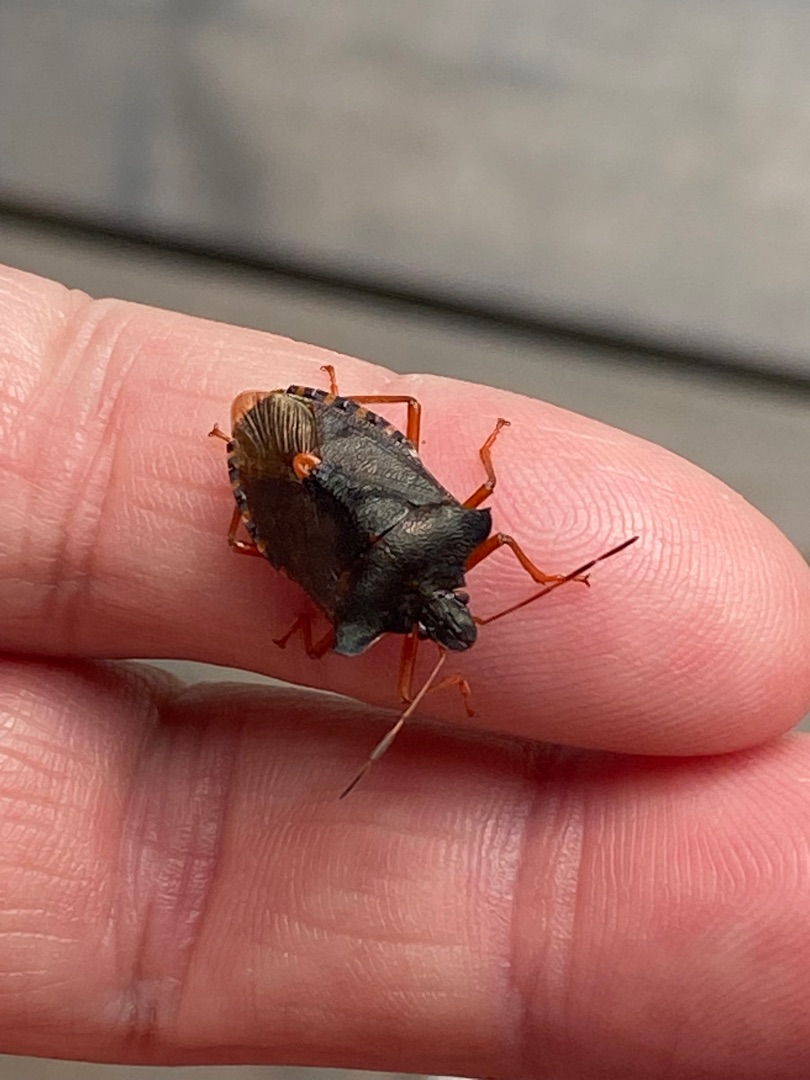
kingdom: Animalia
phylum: Arthropoda
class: Insecta
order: Hemiptera
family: Pentatomidae
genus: Pentatoma
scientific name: Pentatoma rufipes
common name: Rødbenet bredtæge
